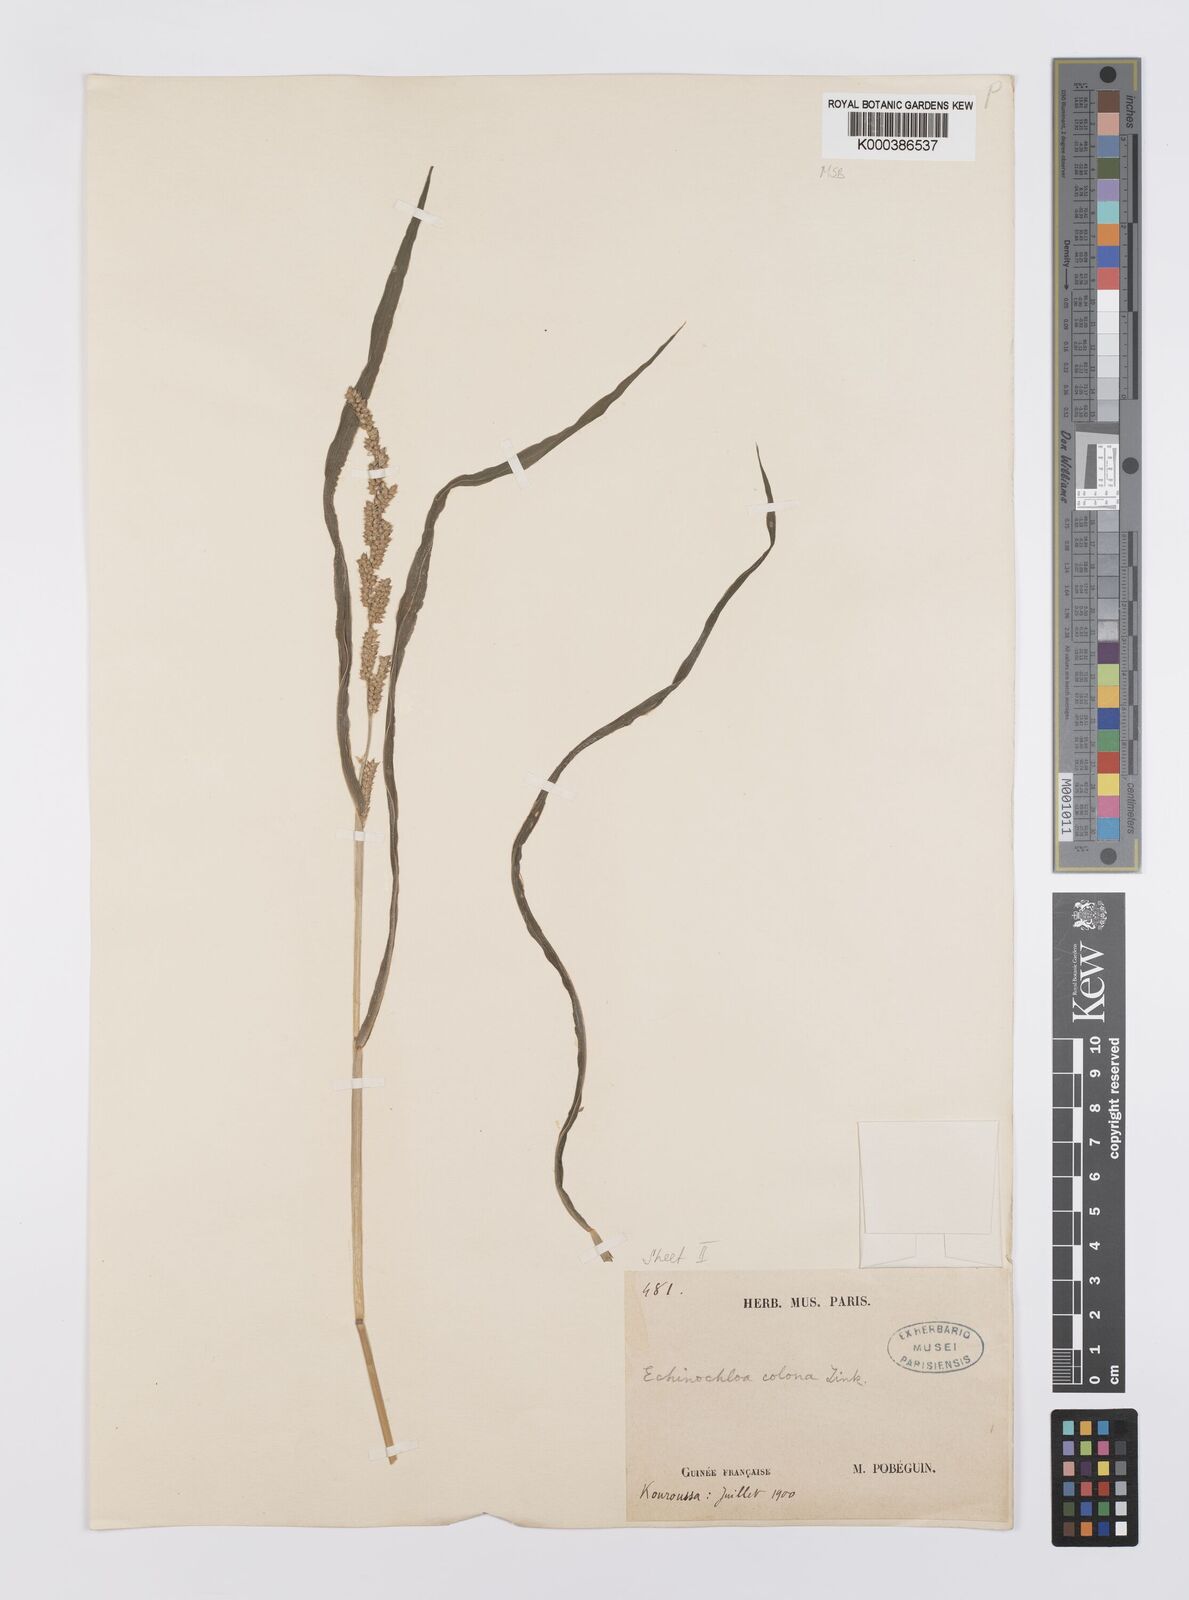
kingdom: Plantae
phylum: Tracheophyta
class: Liliopsida
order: Poales
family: Poaceae
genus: Echinochloa
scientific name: Echinochloa colonum
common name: Jungle rice
